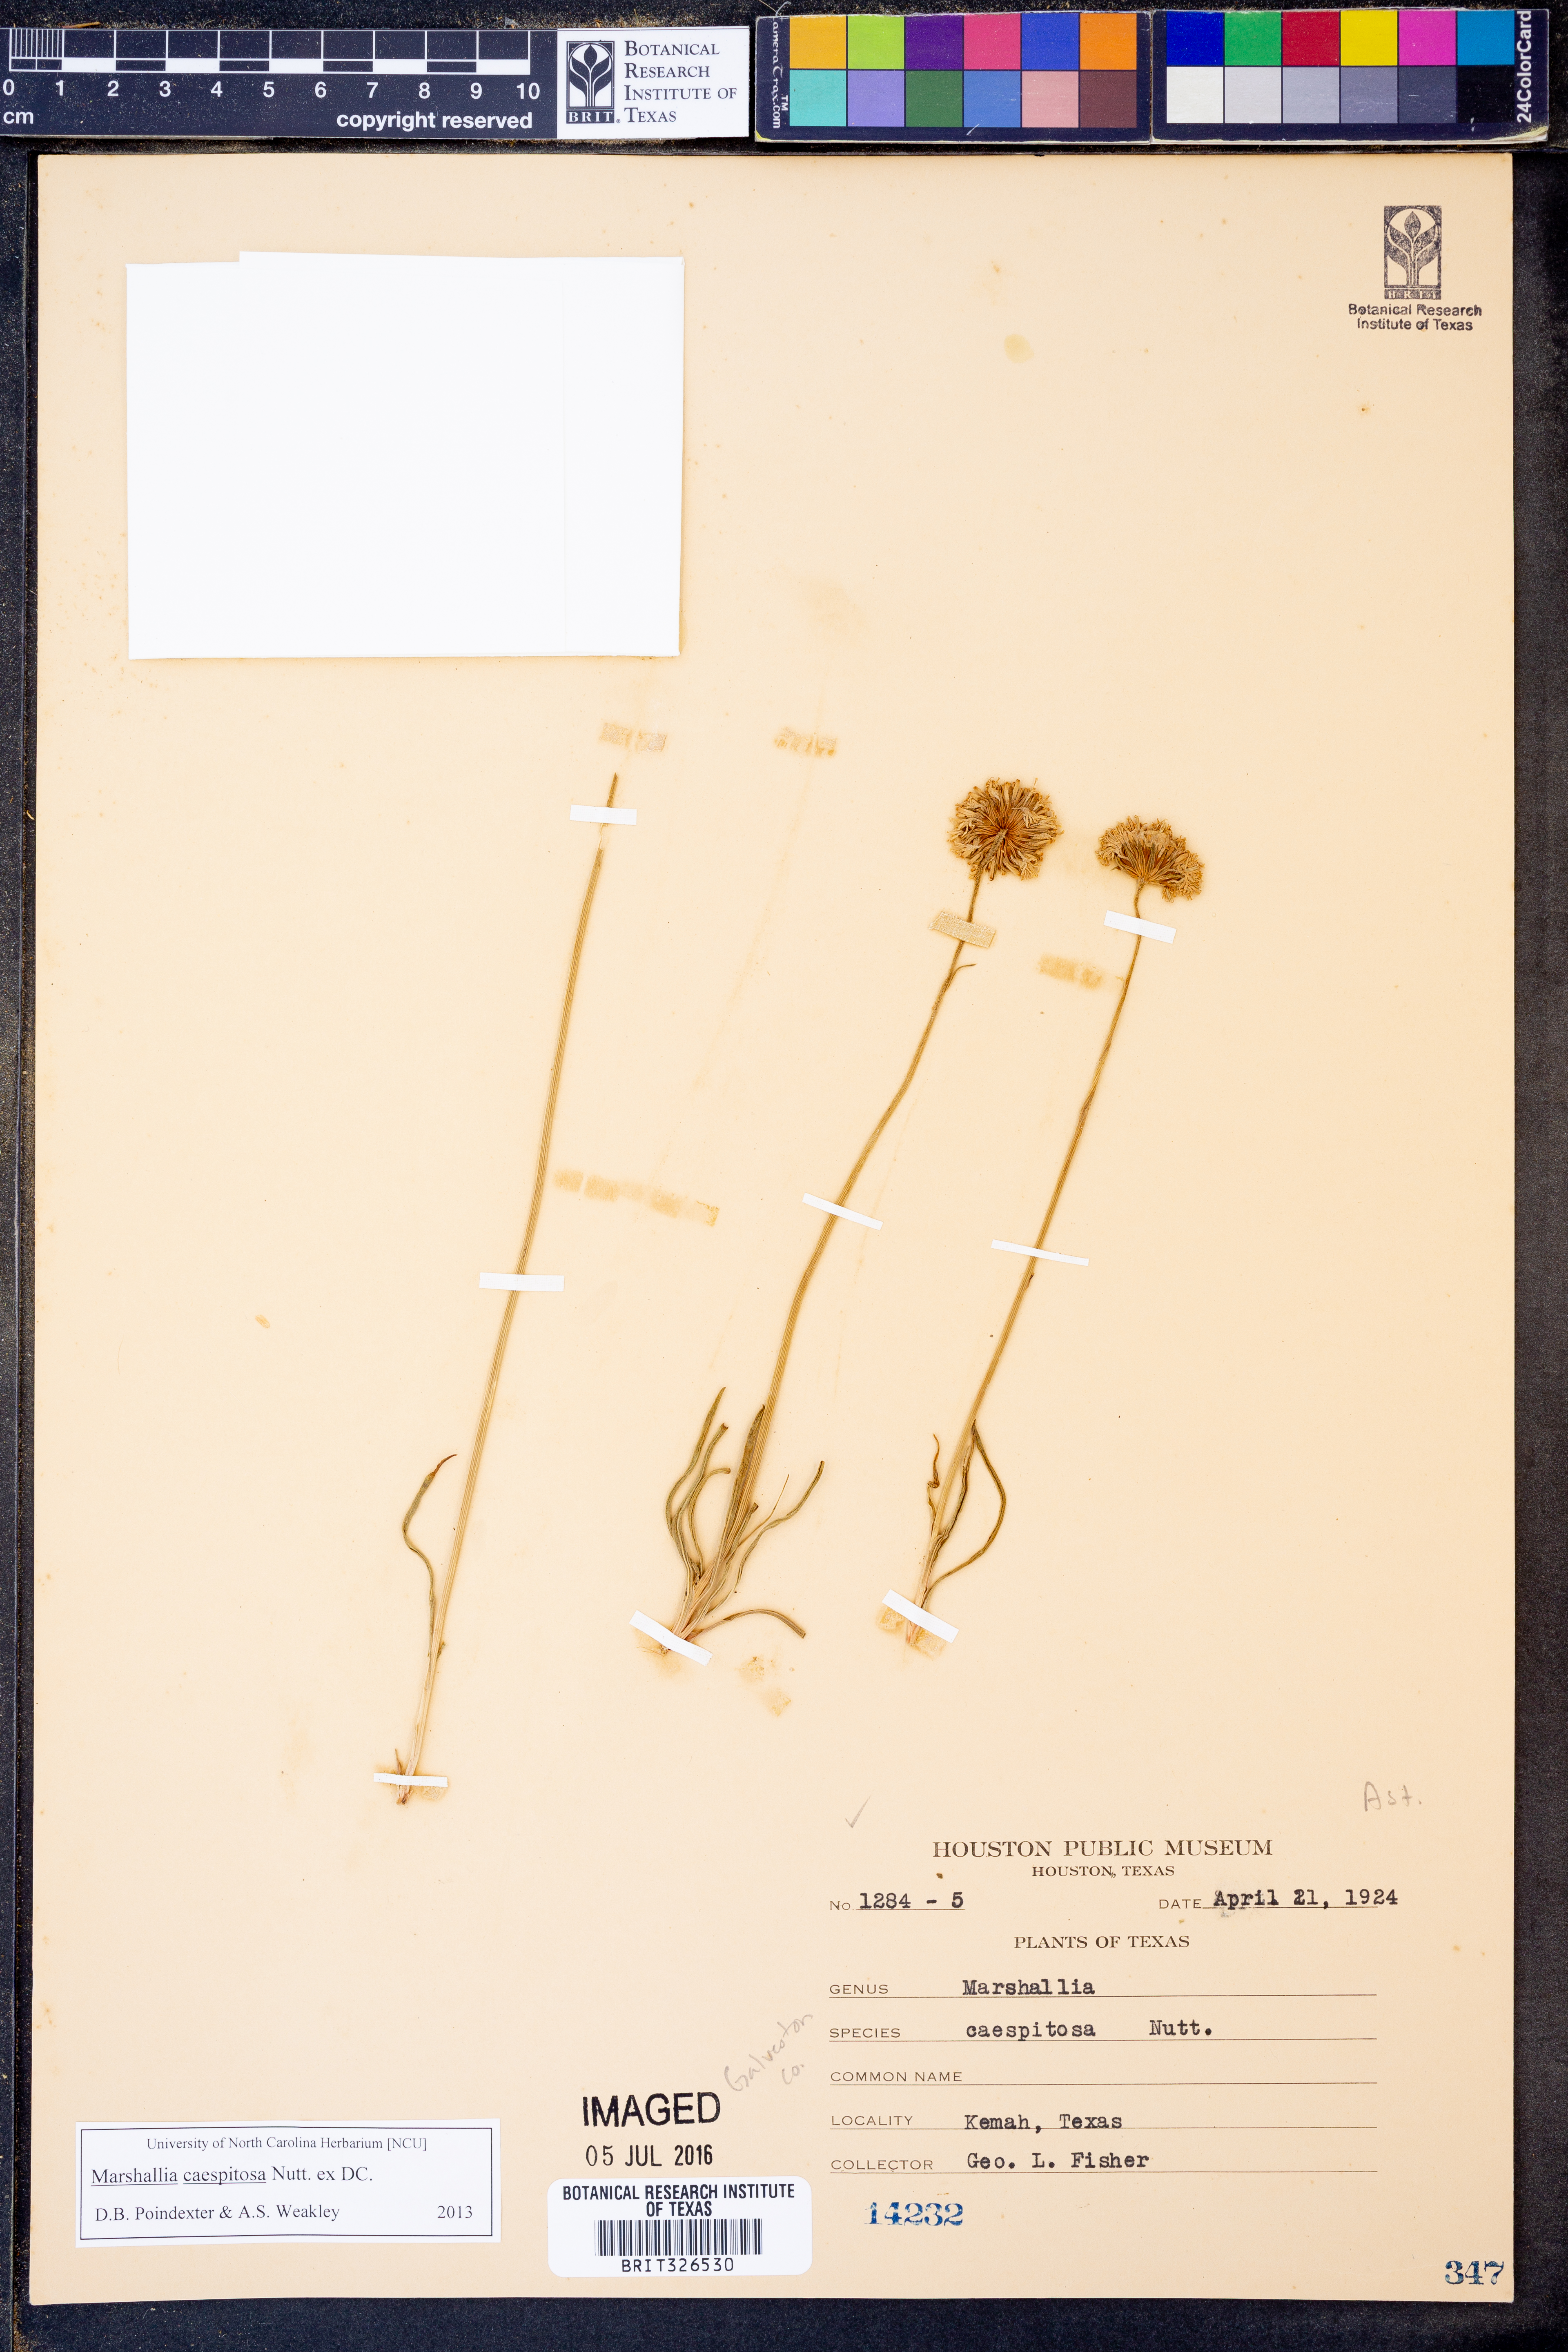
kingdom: Plantae
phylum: Tracheophyta
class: Magnoliopsida
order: Asterales
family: Asteraceae
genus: Marshallia
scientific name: Marshallia caespitosa
